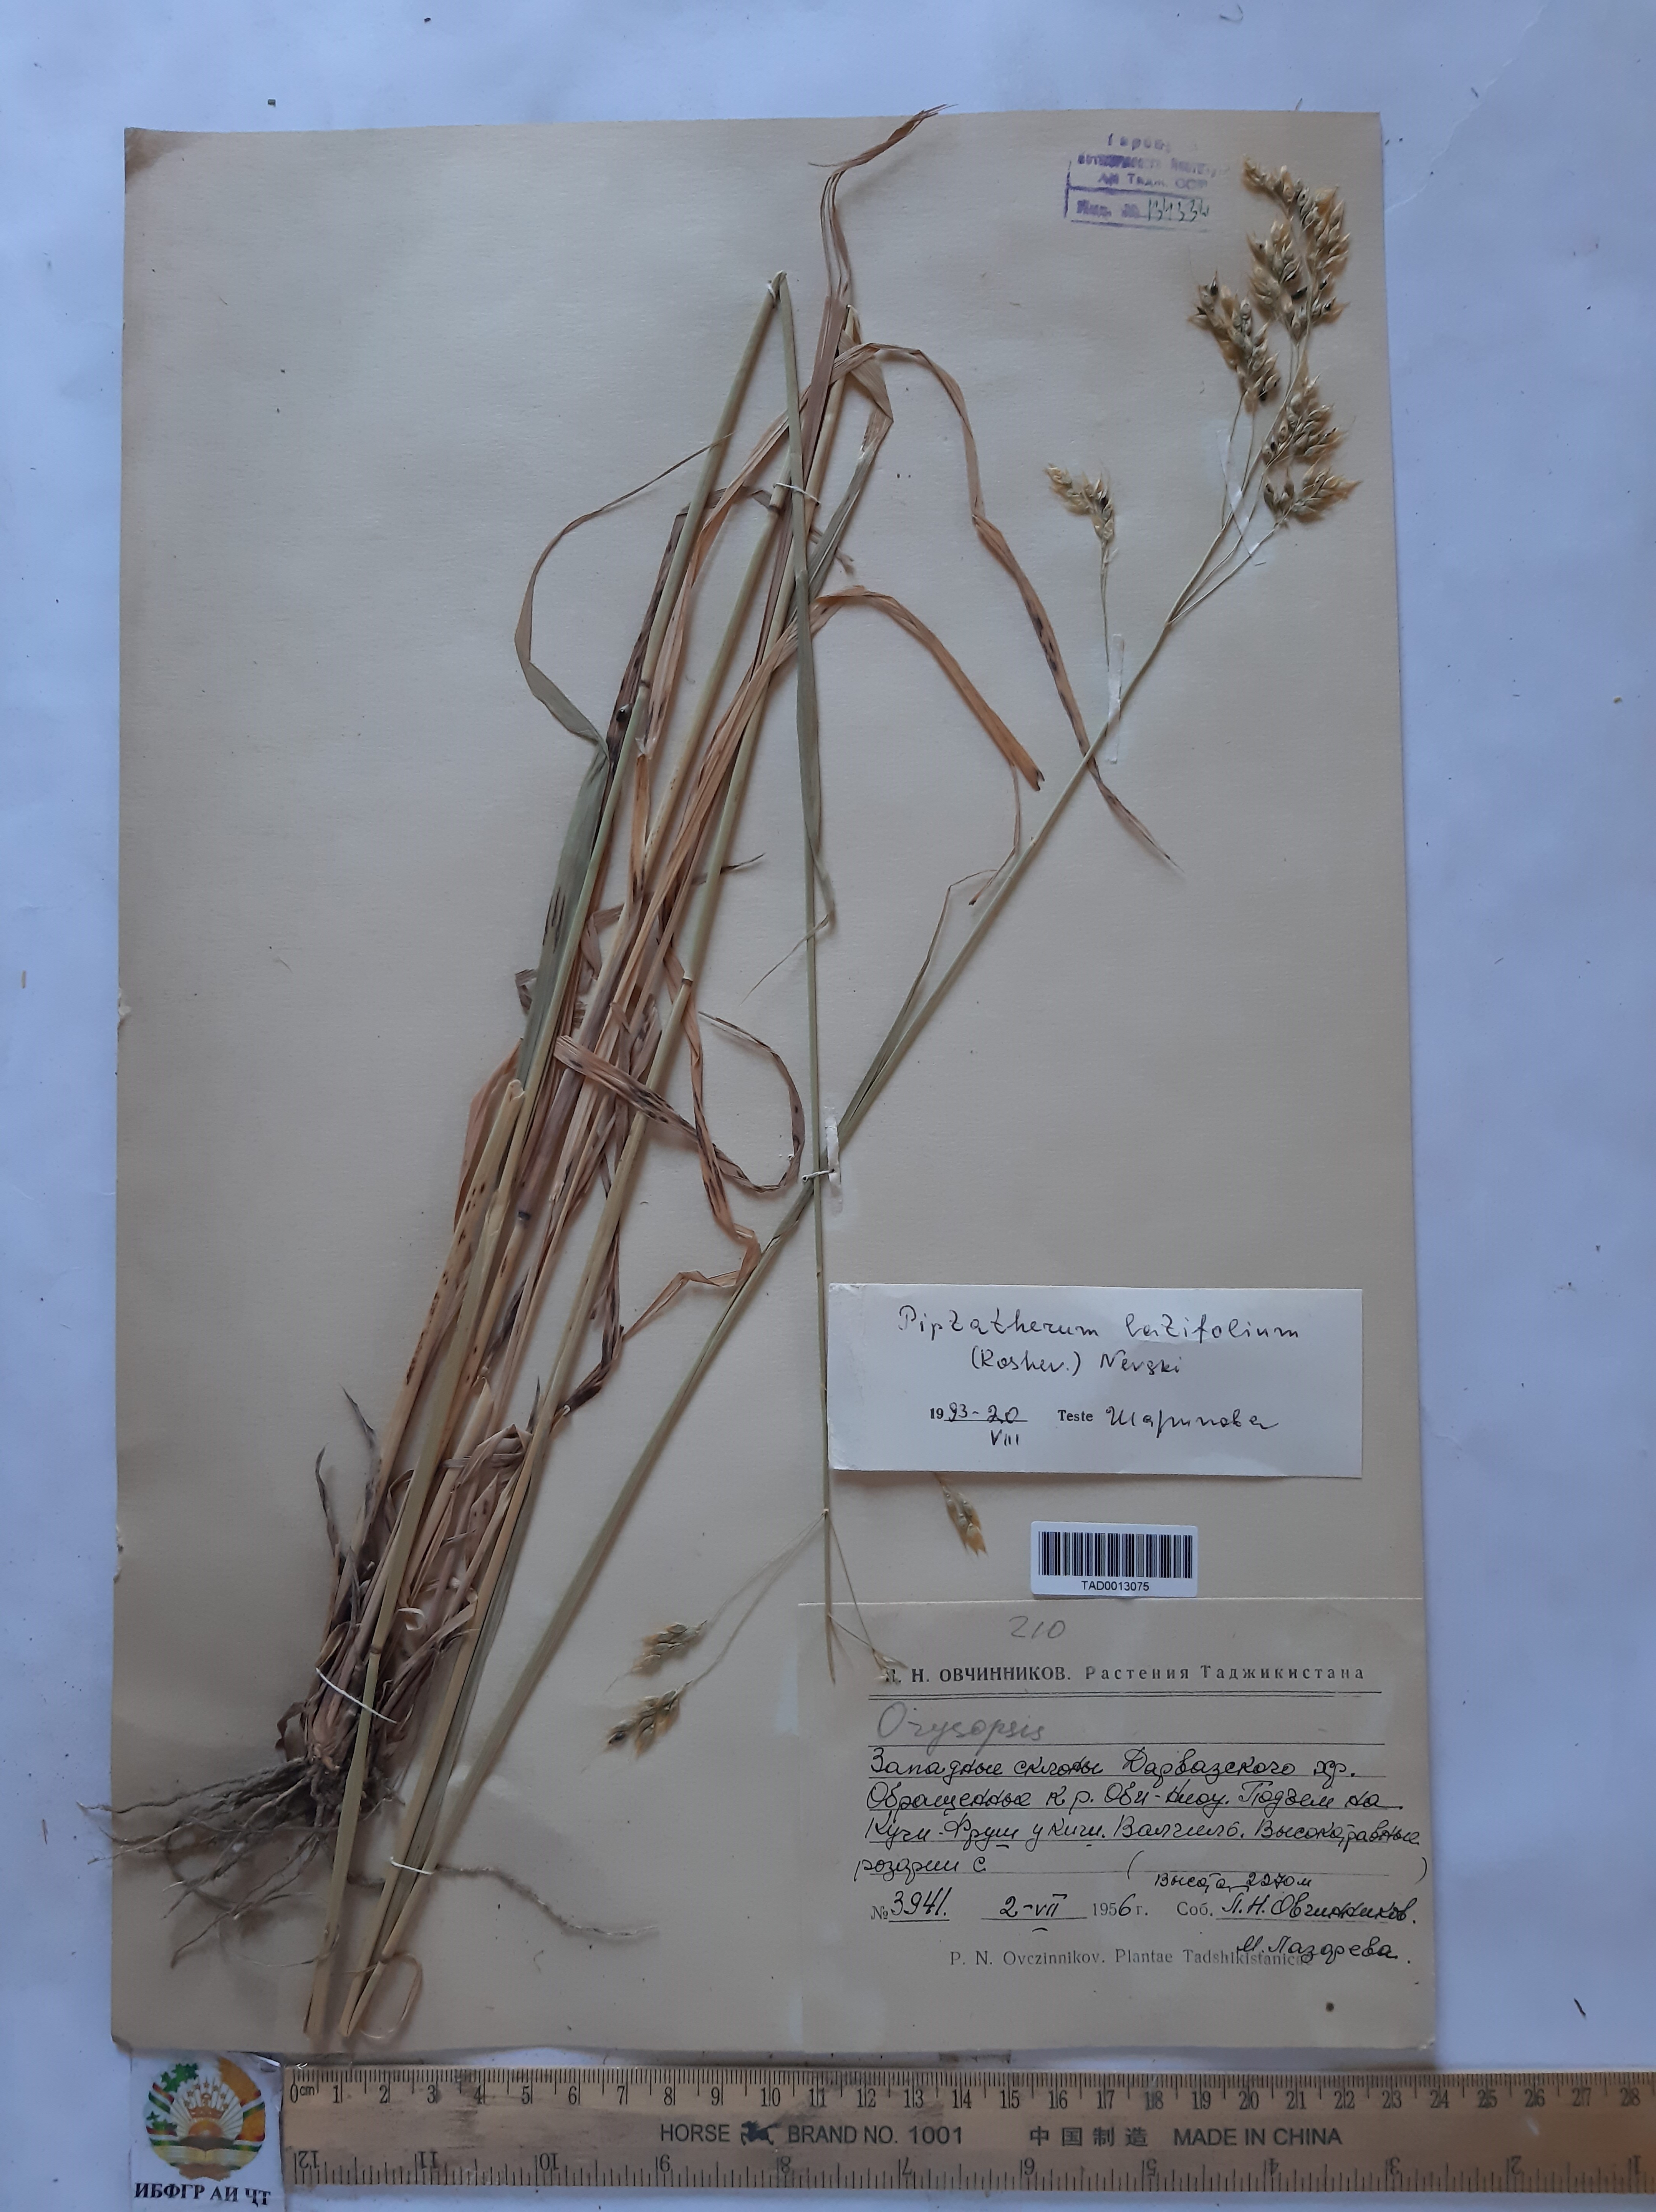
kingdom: Plantae
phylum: Tracheophyta
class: Liliopsida
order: Poales
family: Poaceae
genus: Piptatherum
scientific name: Piptatherum laterale
